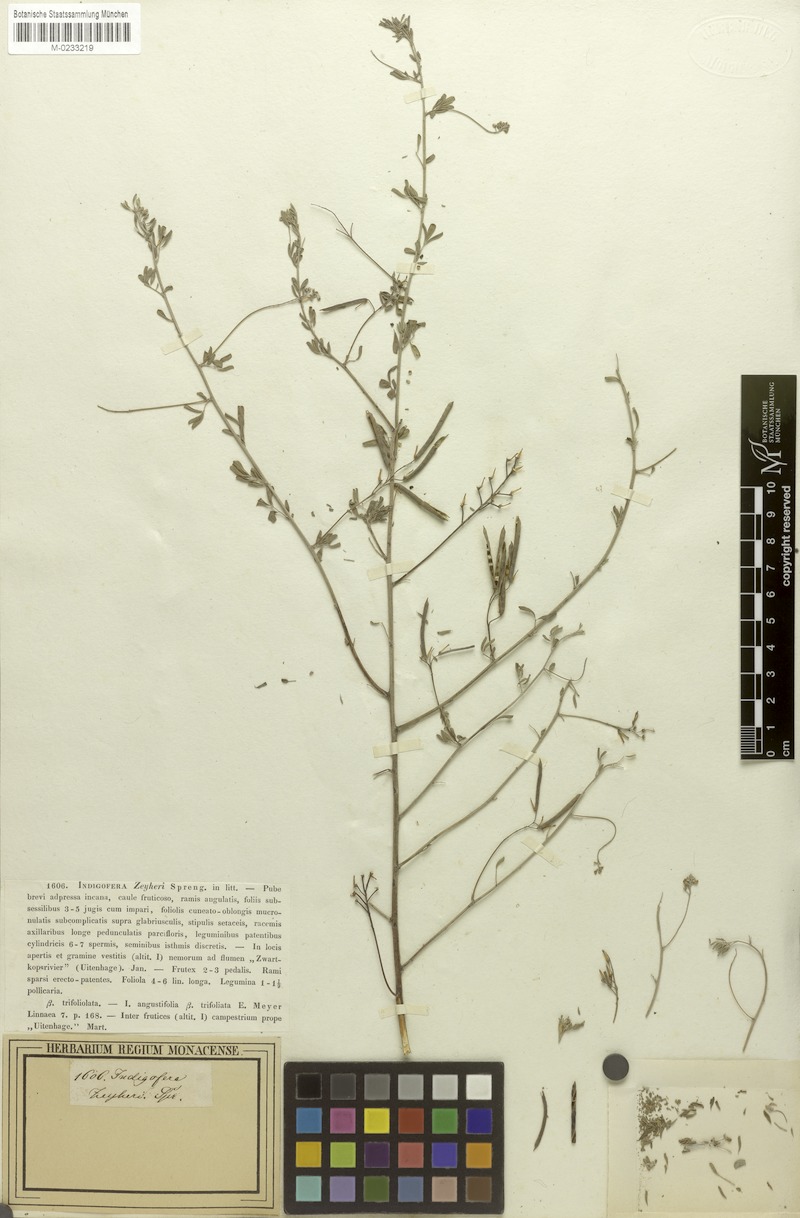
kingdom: Plantae
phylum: Tracheophyta
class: Magnoliopsida
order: Fabales
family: Fabaceae
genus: Indigofera
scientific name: Indigofera punctata
